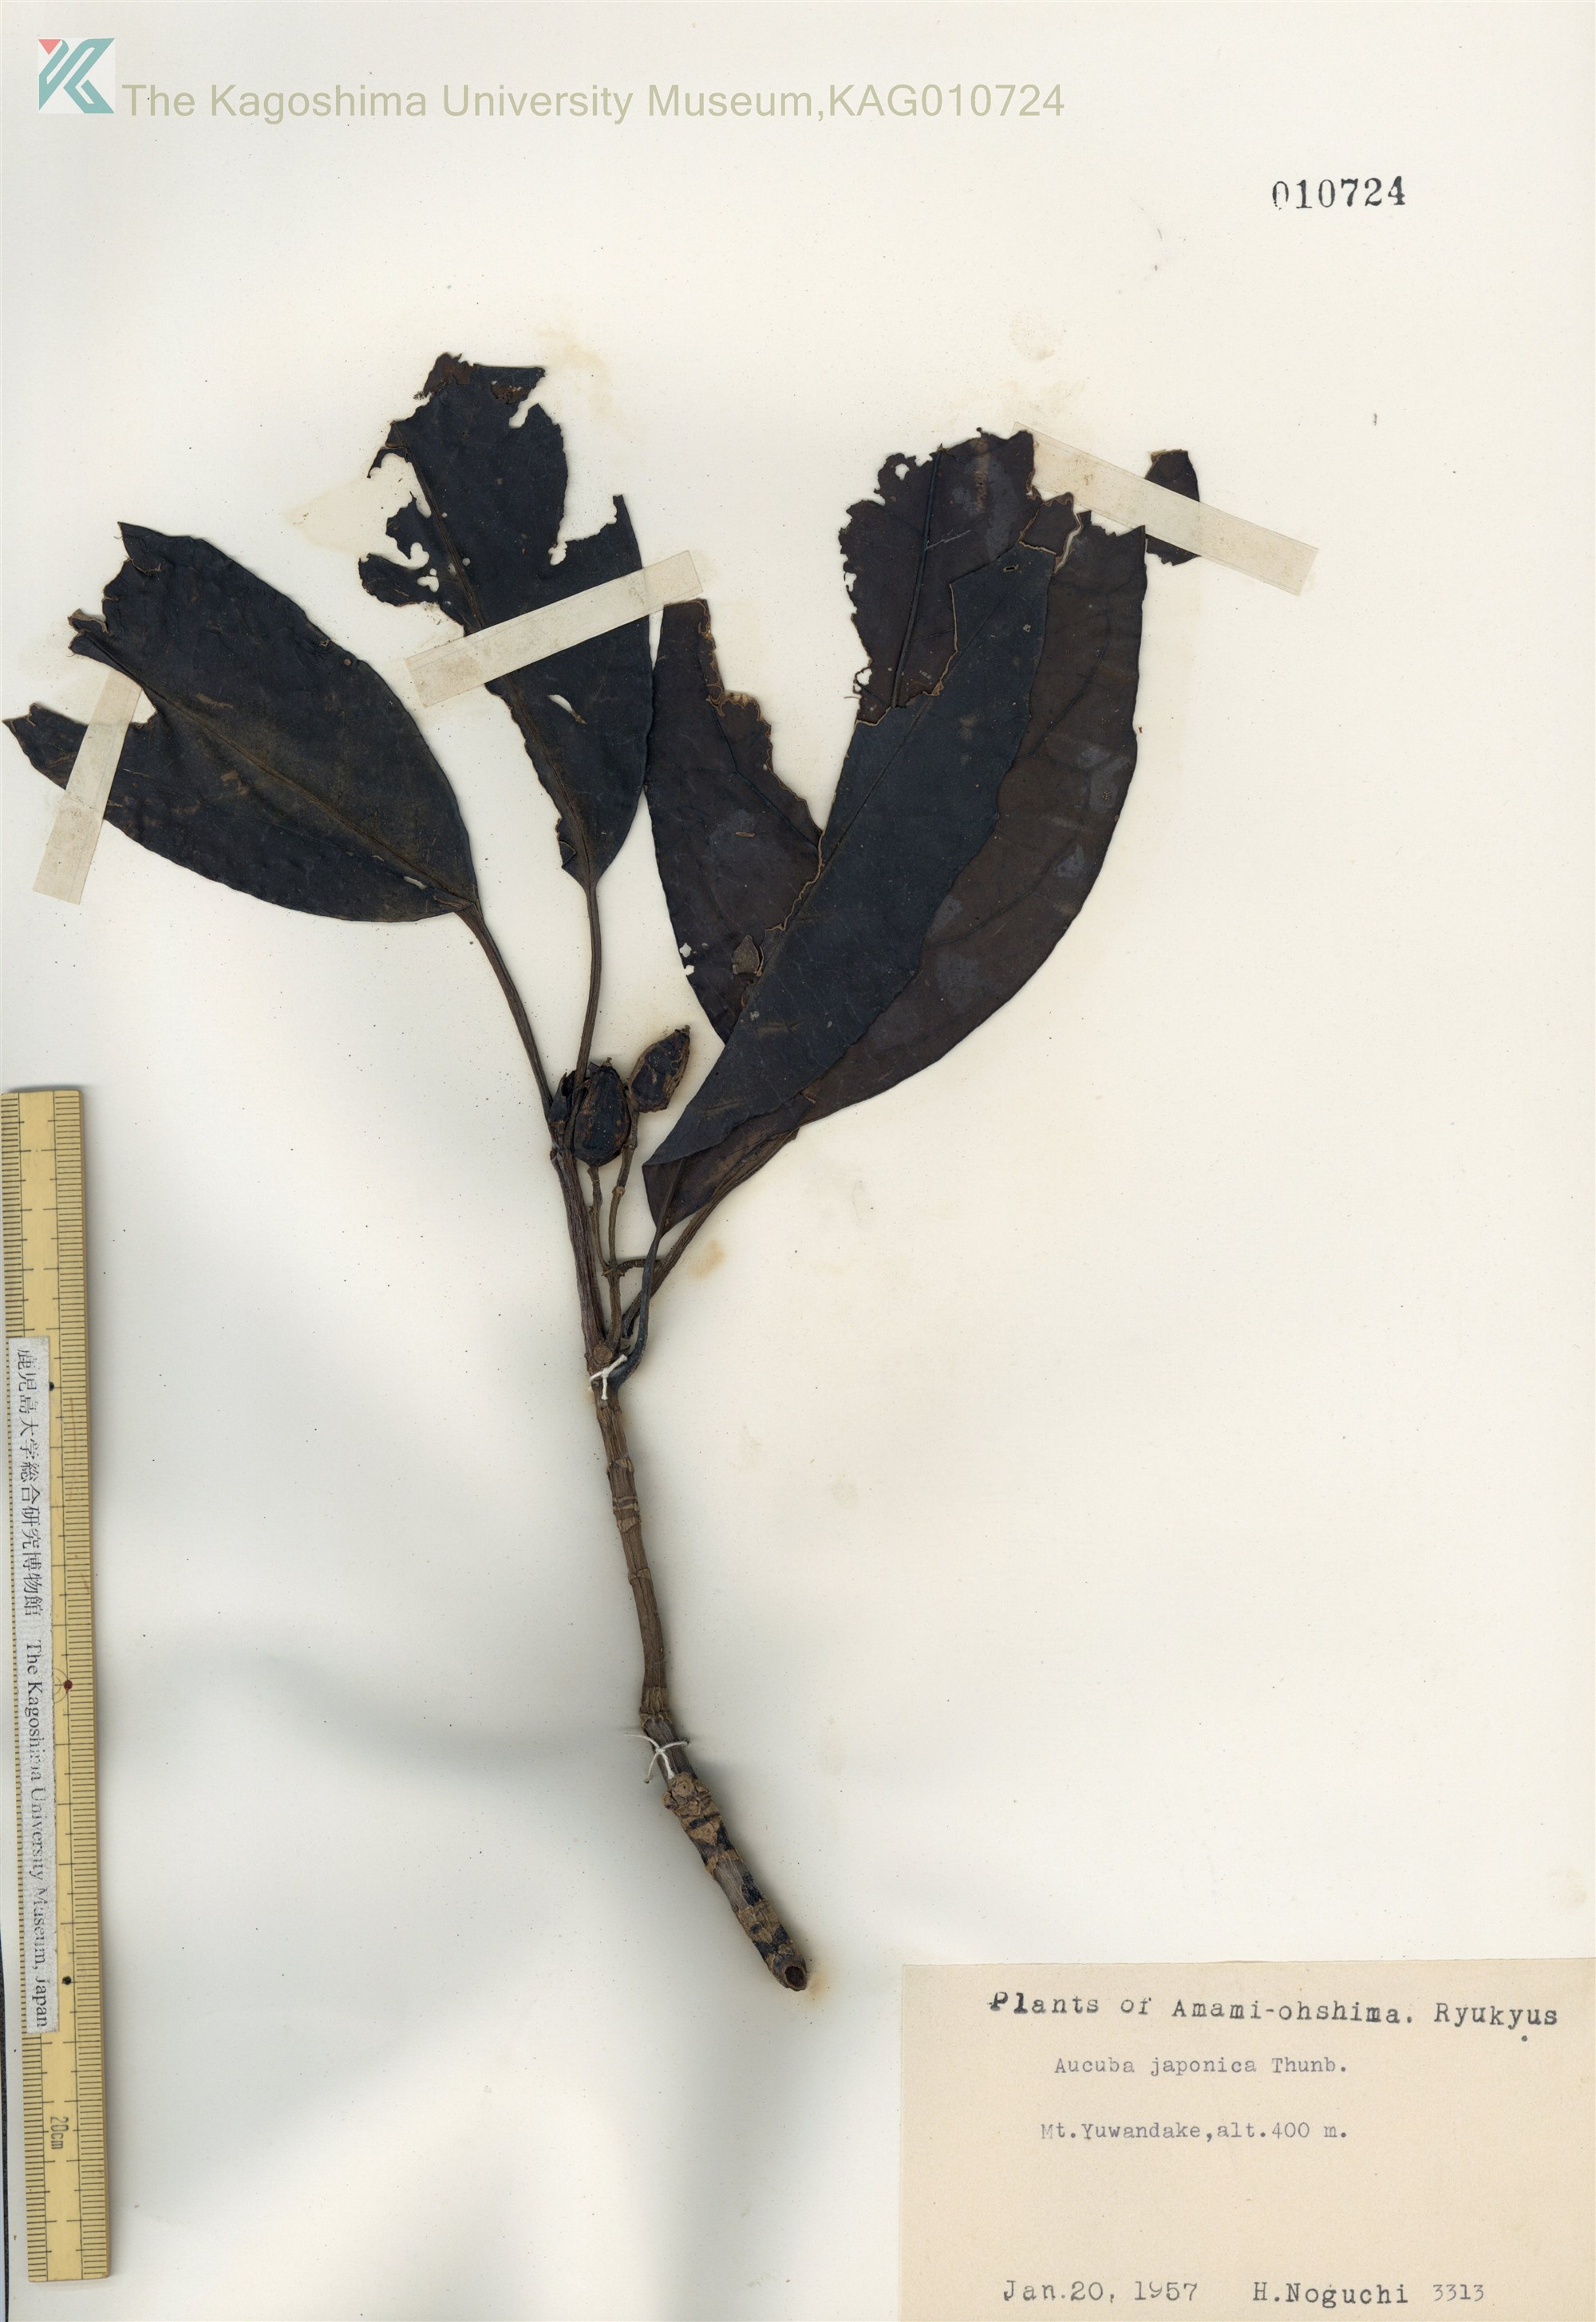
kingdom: Plantae
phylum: Tracheophyta
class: Magnoliopsida
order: Garryales
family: Garryaceae
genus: Aucuba
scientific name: Aucuba japonica
